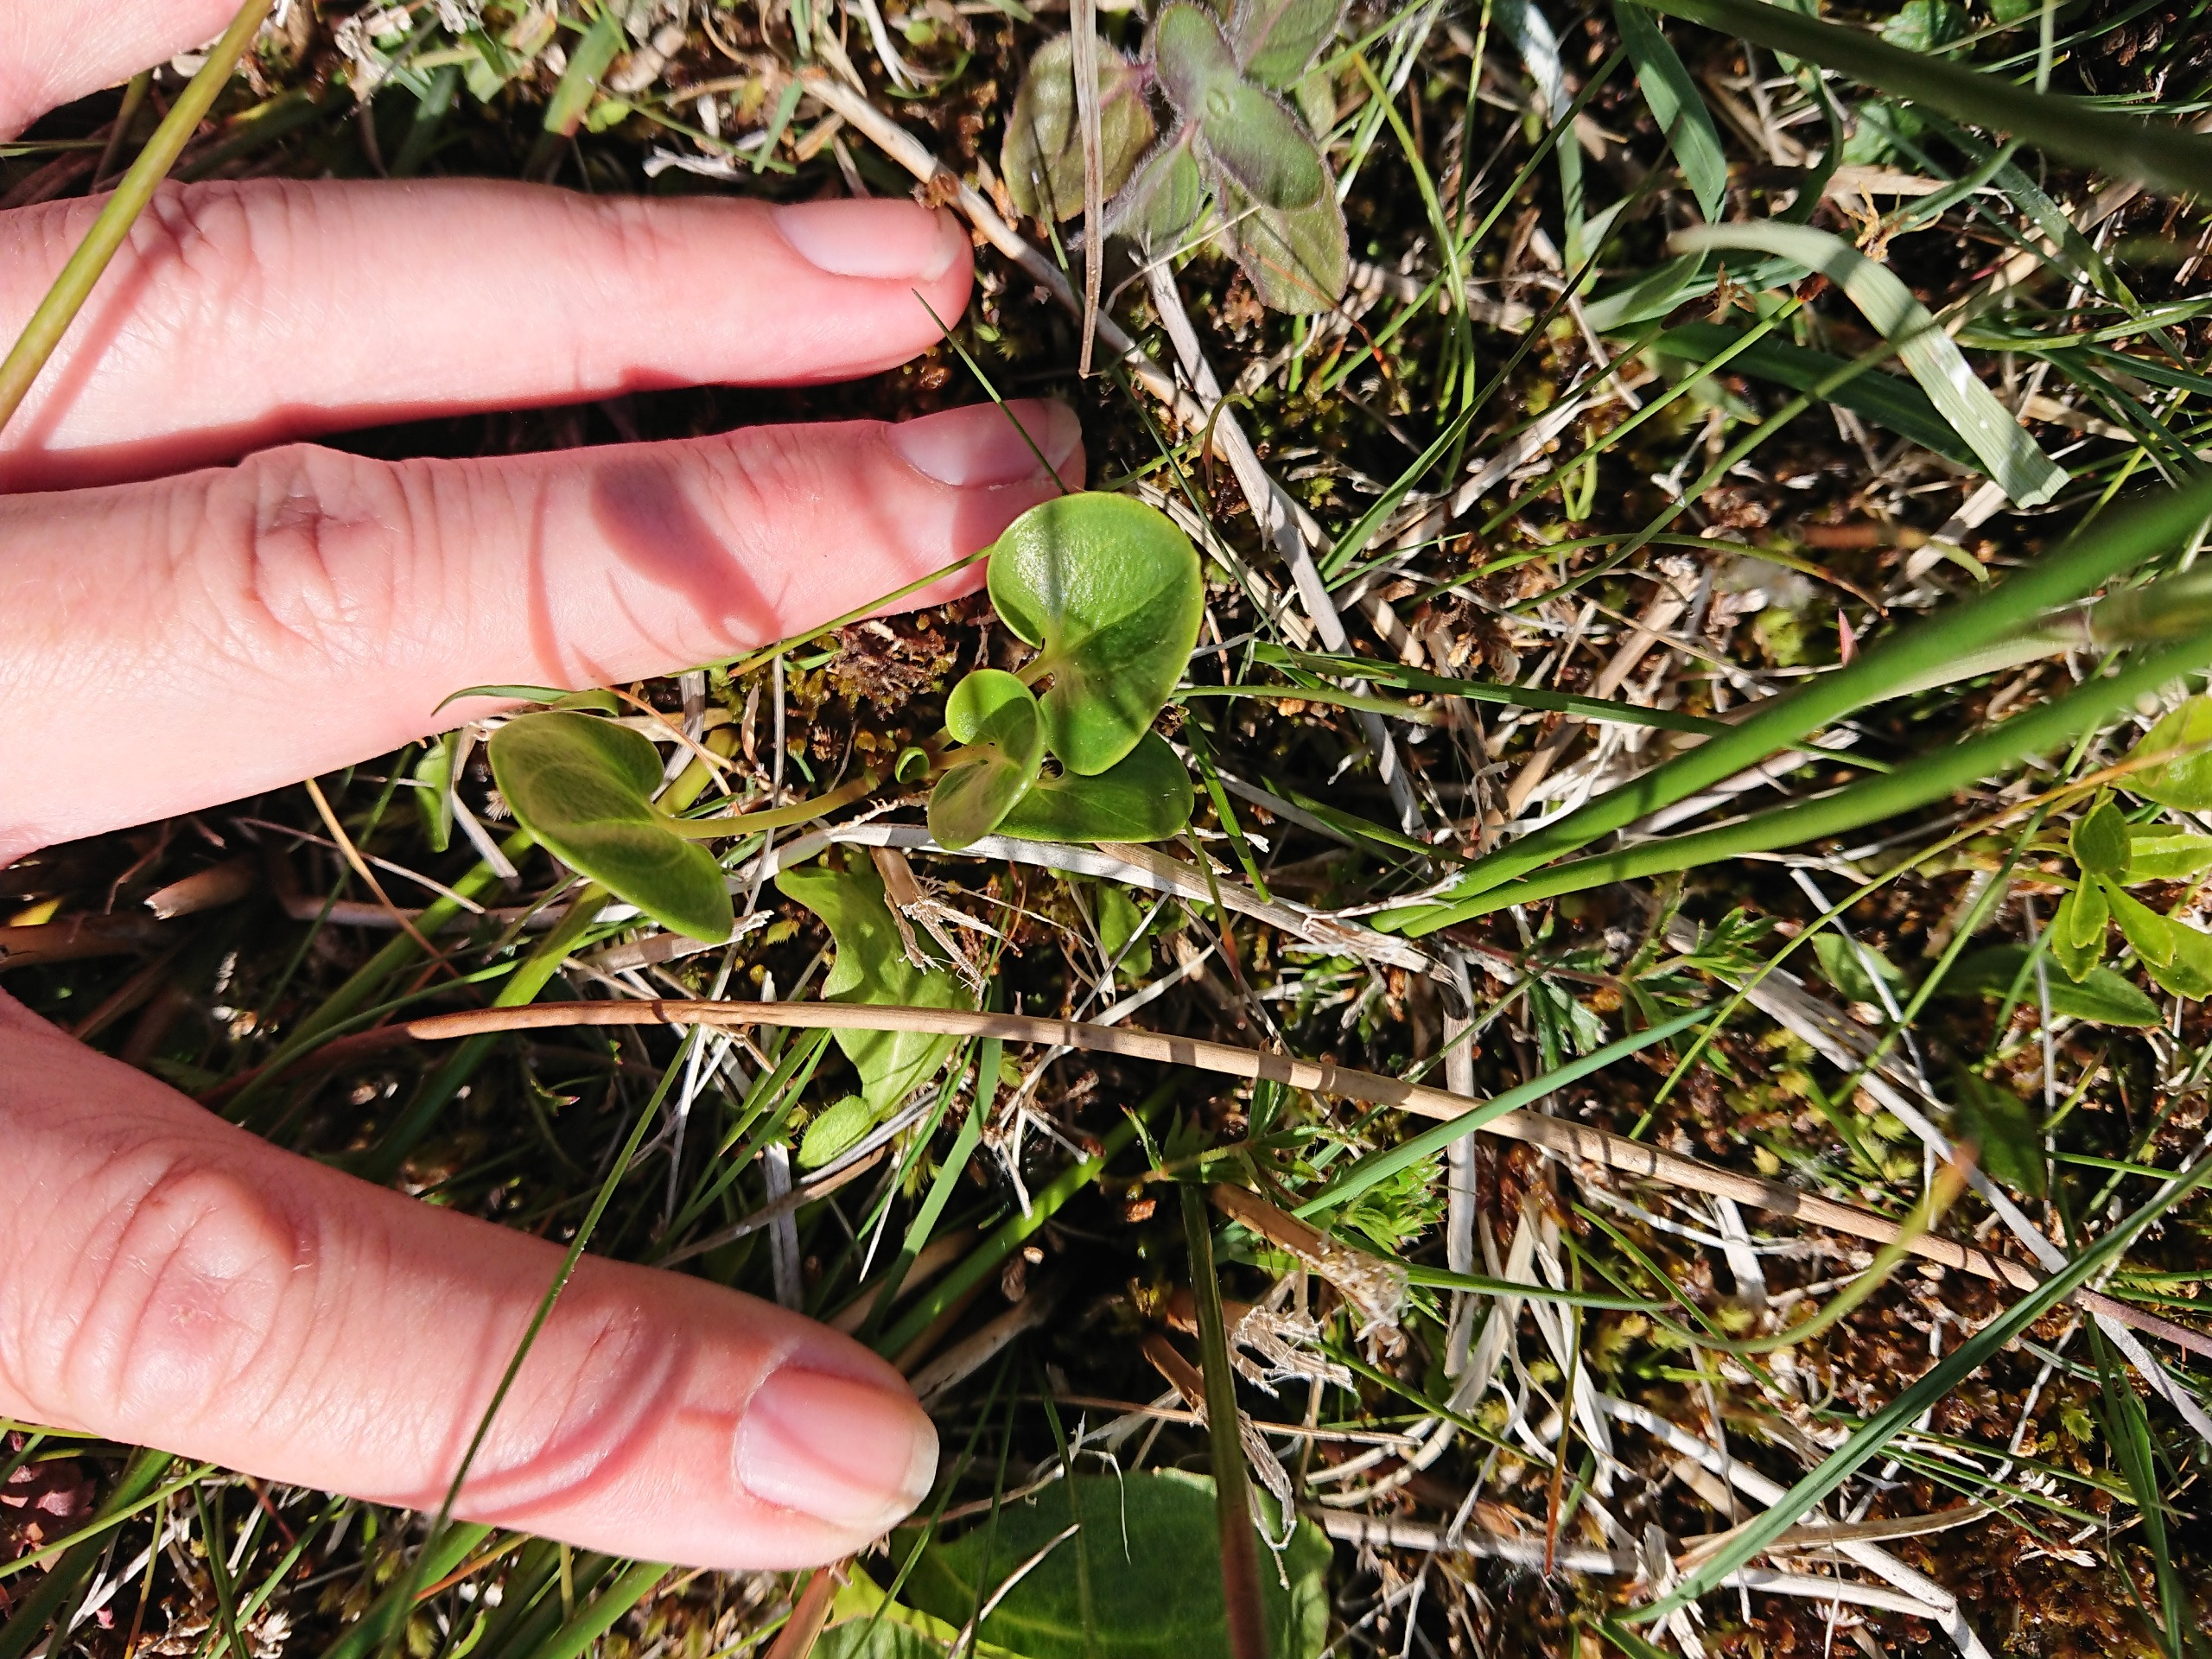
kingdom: Plantae
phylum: Tracheophyta
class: Magnoliopsida
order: Celastrales
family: Parnassiaceae
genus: Parnassia
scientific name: Parnassia palustris
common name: Leverurt
